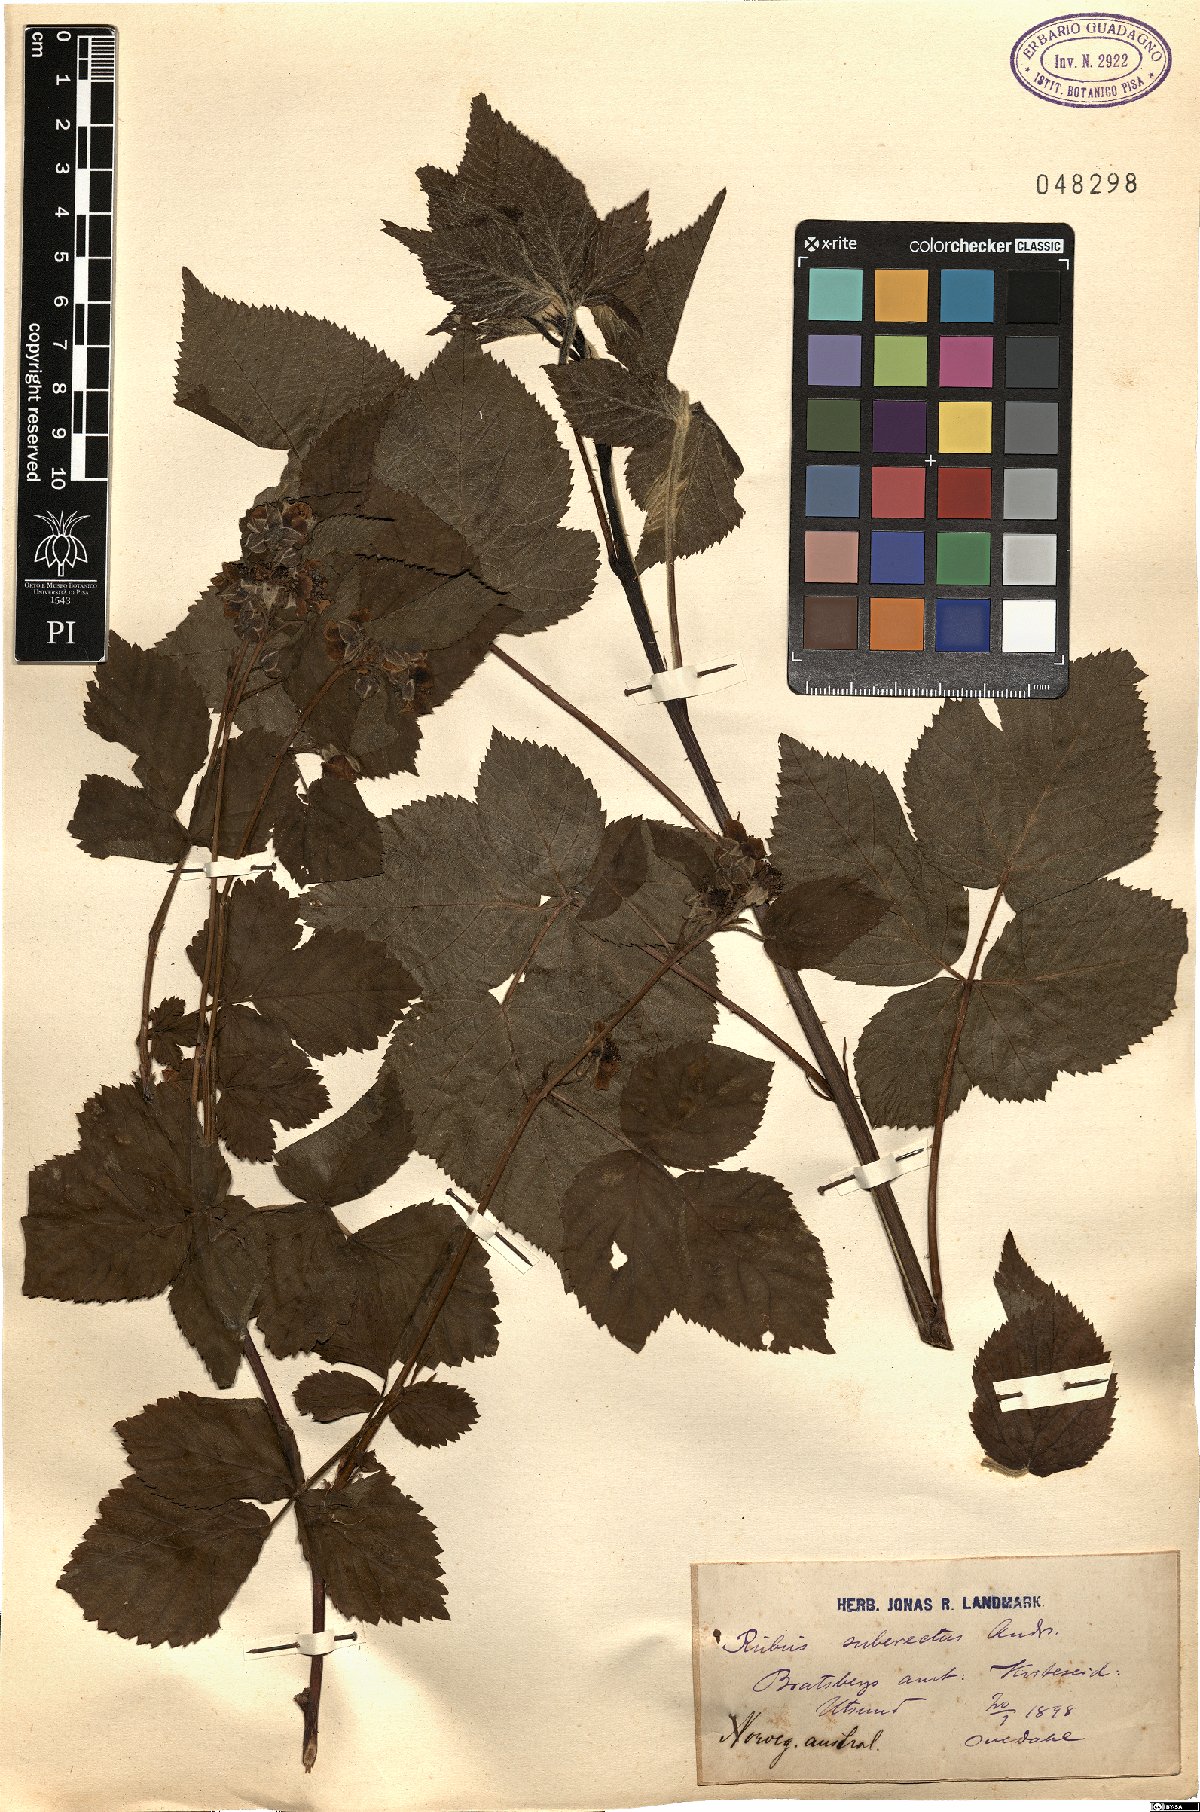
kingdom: Plantae
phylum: Tracheophyta
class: Magnoliopsida
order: Rosales
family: Rosaceae
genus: Rubus
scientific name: Rubus polonicus
